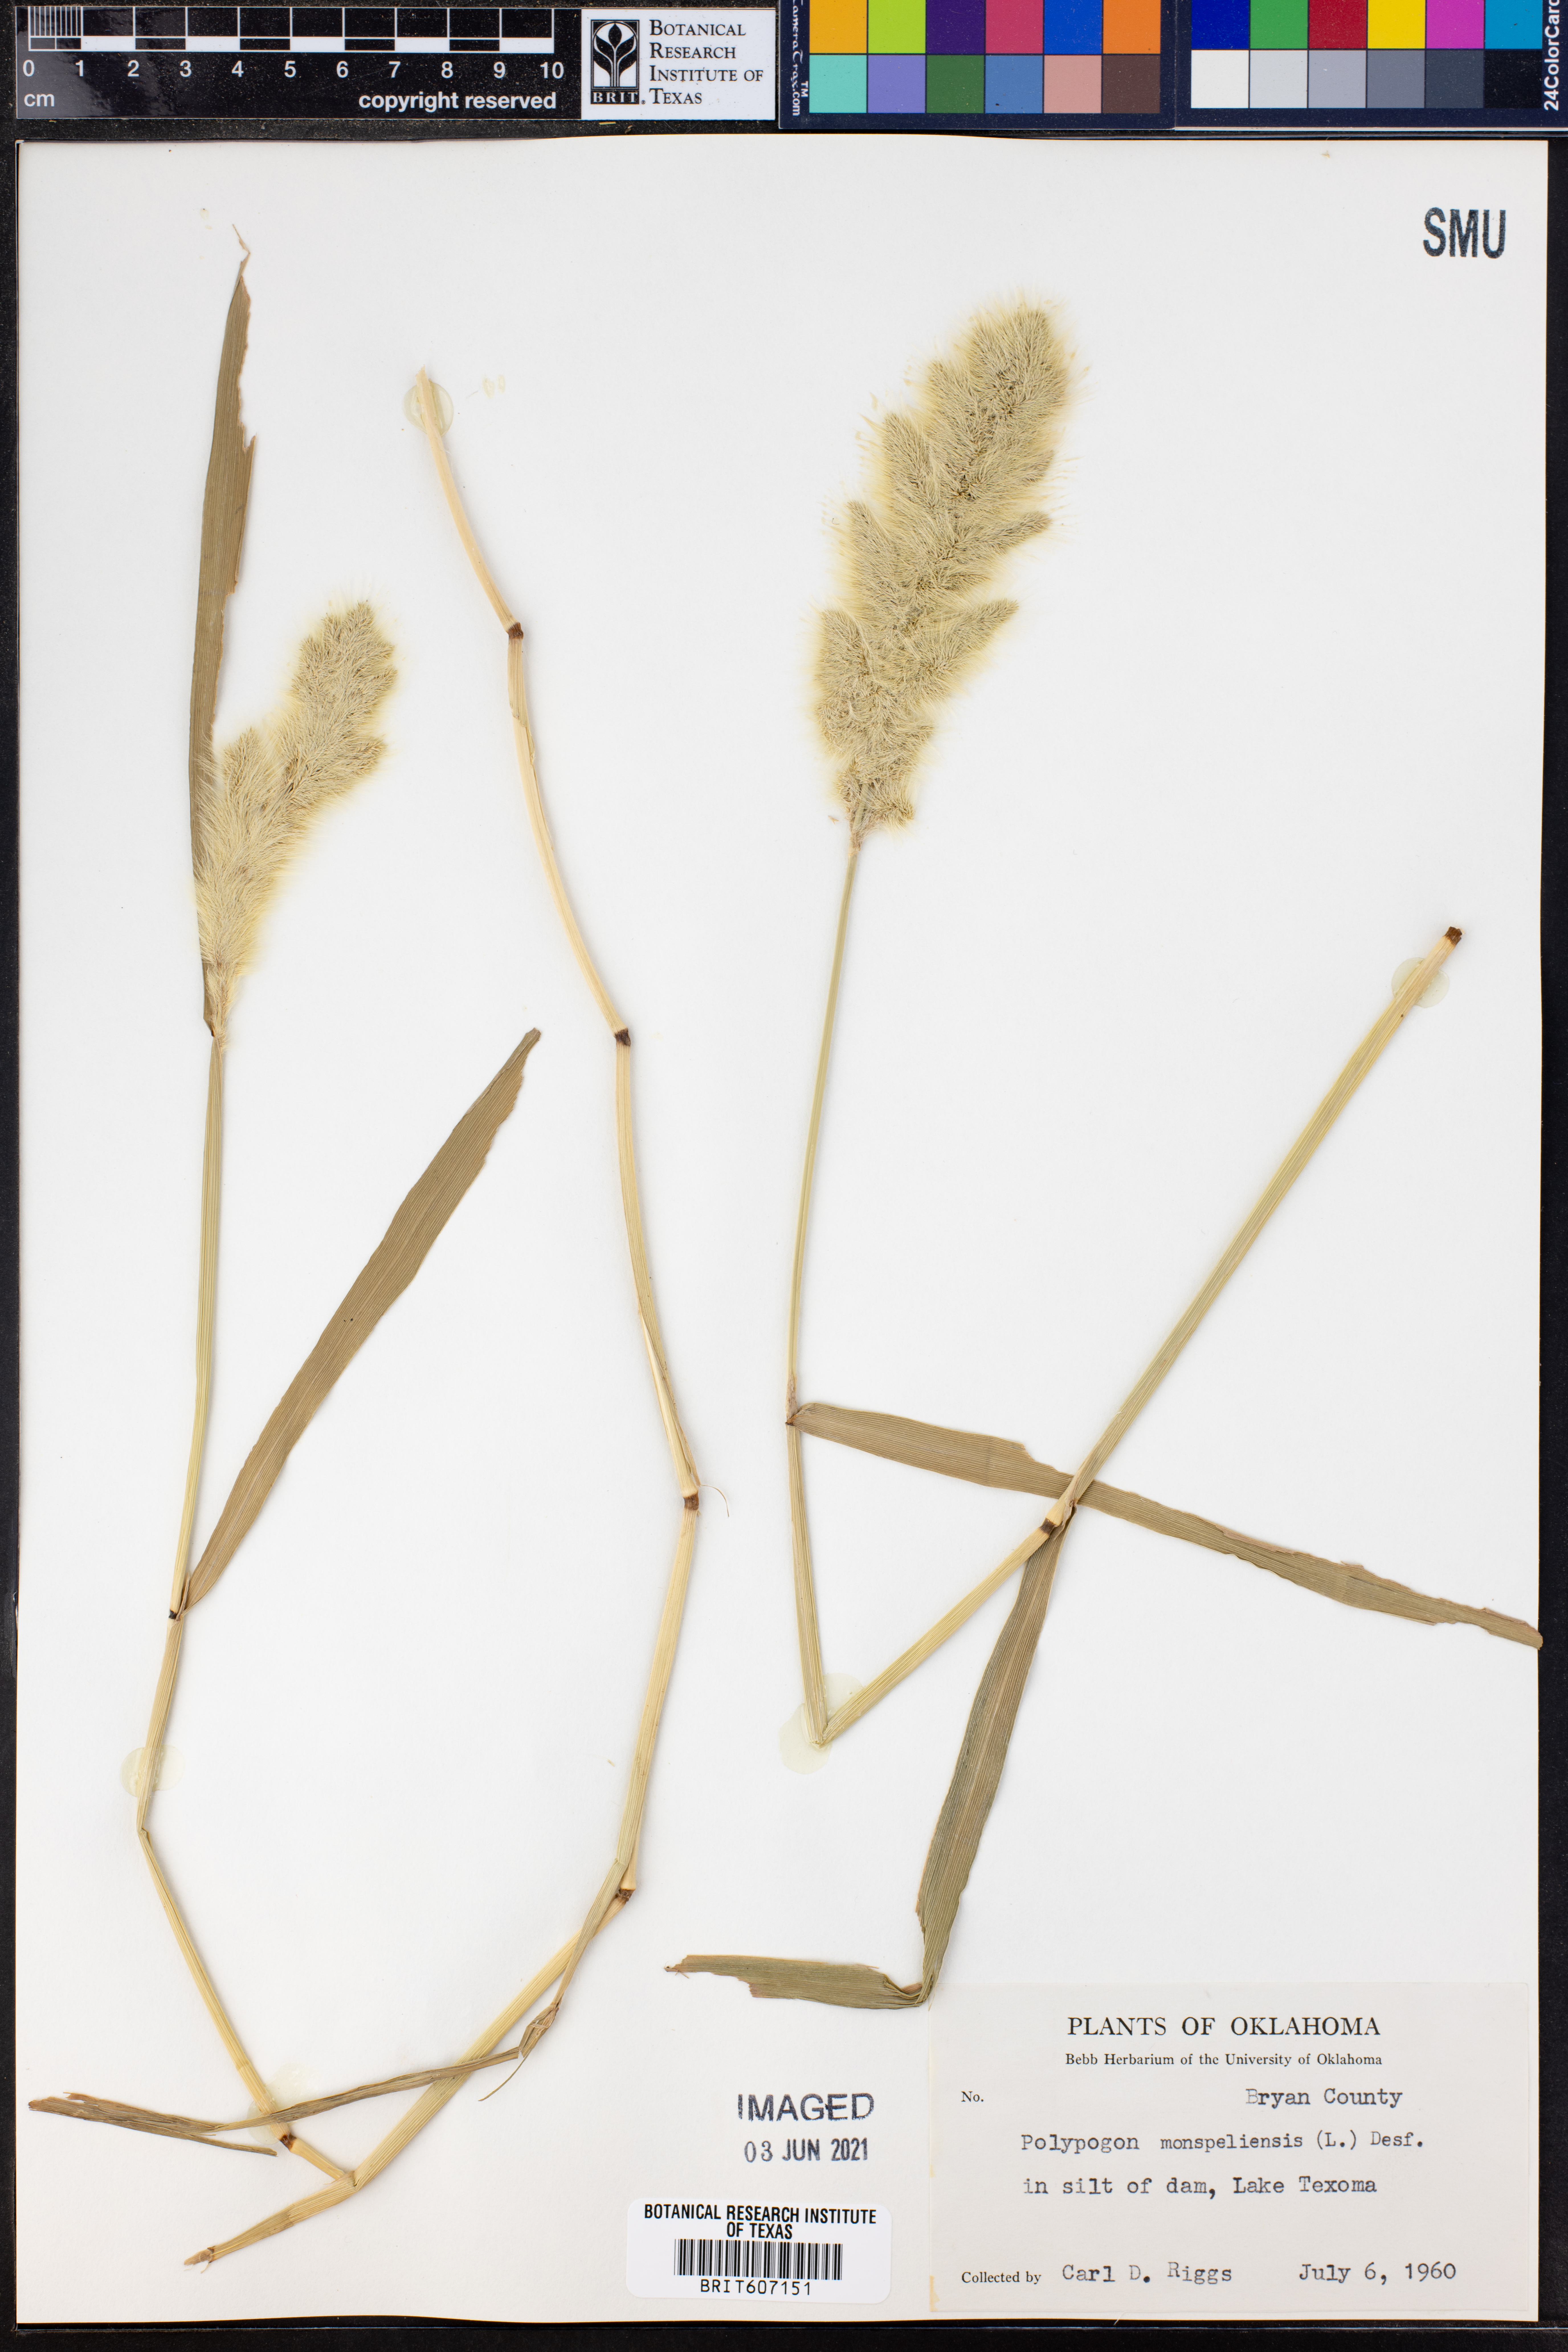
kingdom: Plantae
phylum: Tracheophyta
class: Liliopsida
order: Poales
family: Poaceae
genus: Polypogon
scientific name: Polypogon monspeliensis
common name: Annual rabbitsfoot grass
